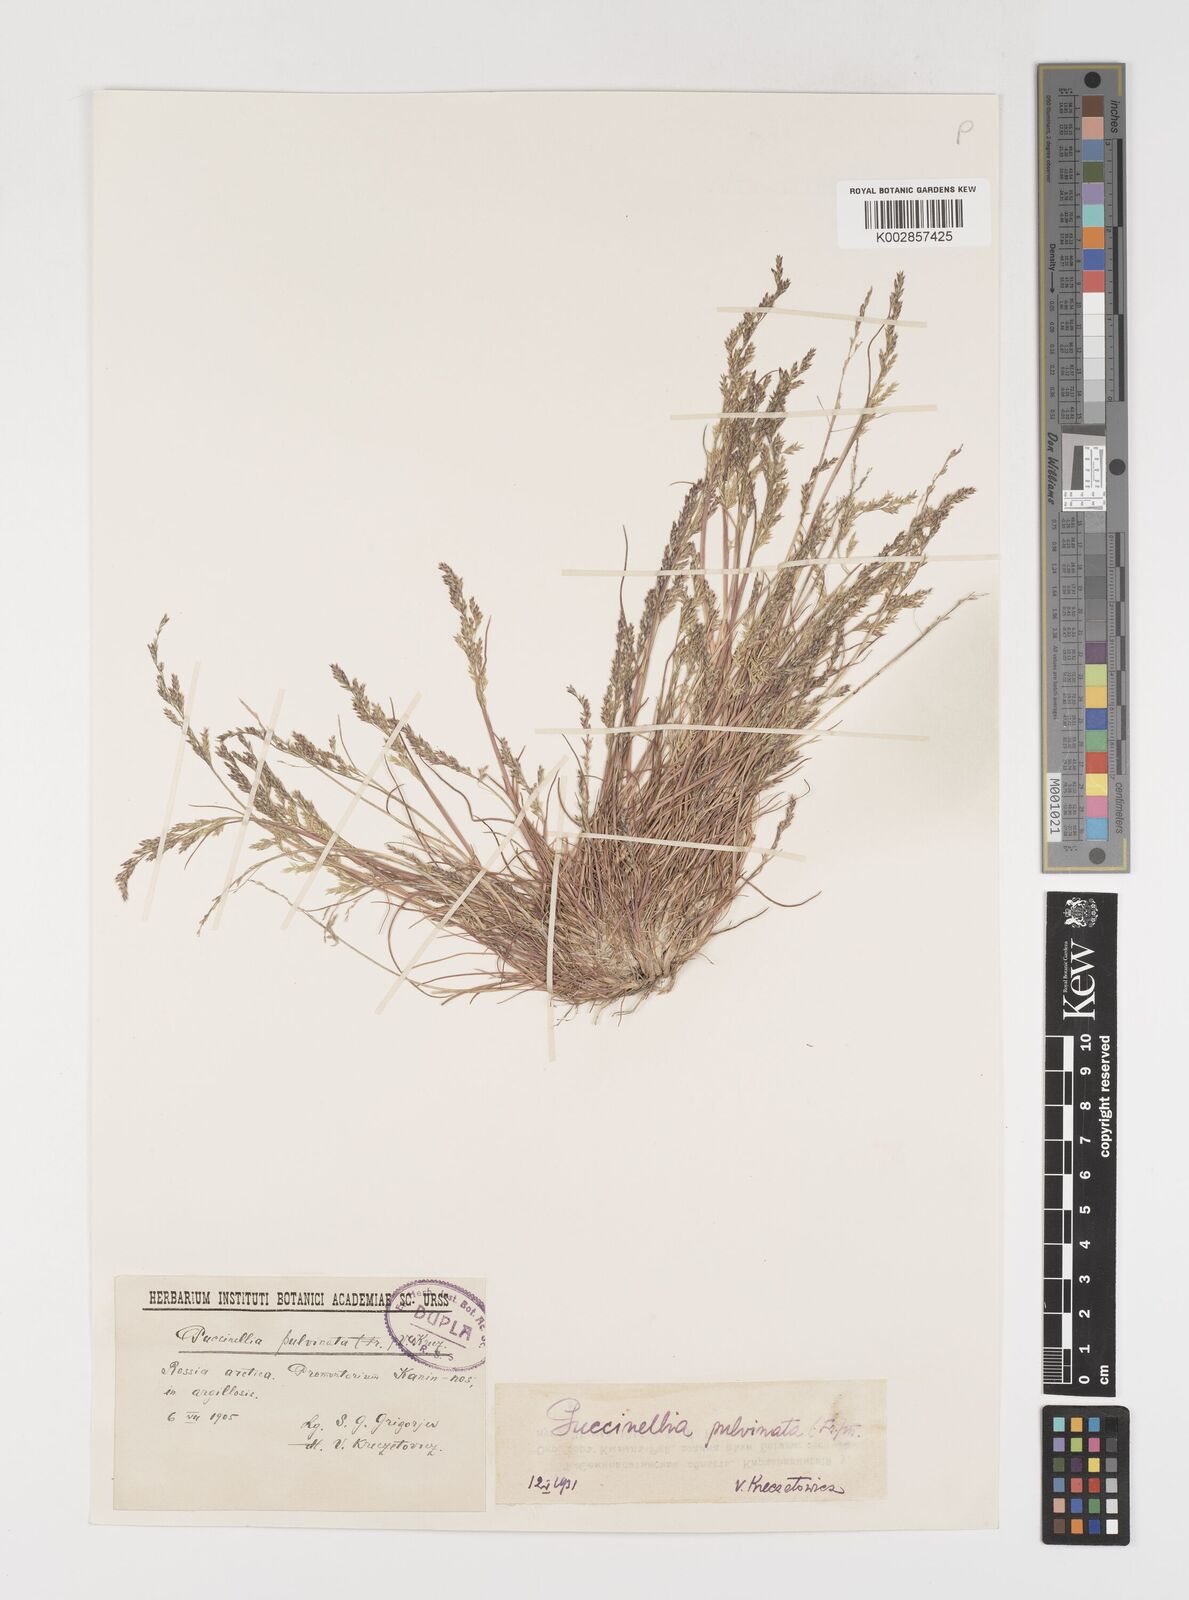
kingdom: Plantae
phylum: Tracheophyta
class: Liliopsida
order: Poales
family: Poaceae
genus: Puccinellia
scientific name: Puccinellia distans
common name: Weeping alkaligrass
